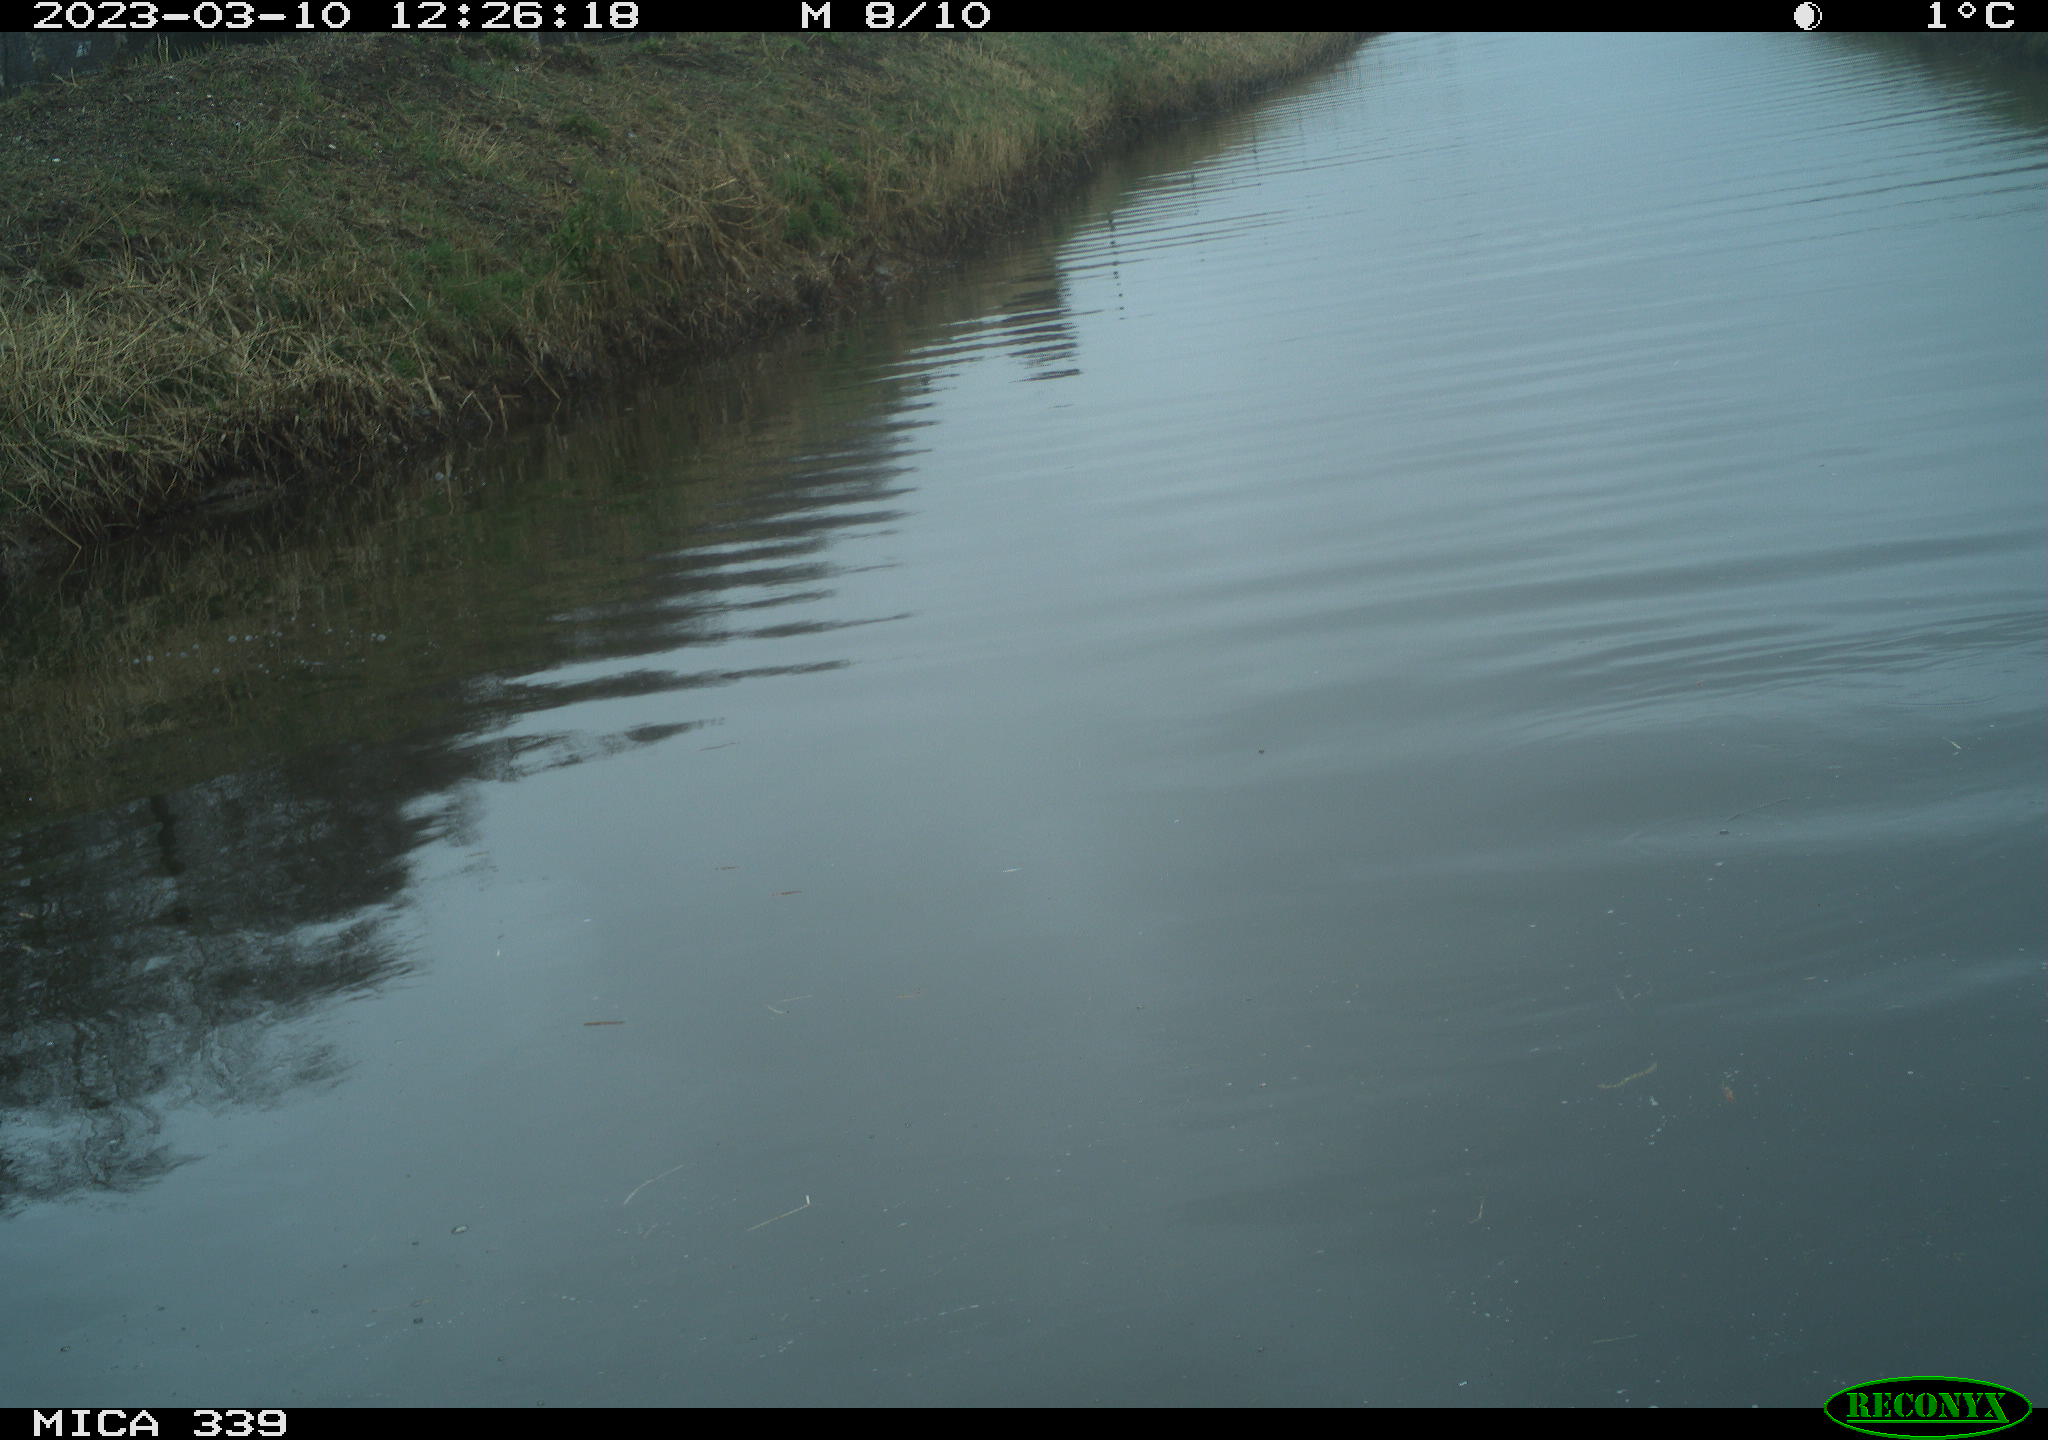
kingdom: Animalia
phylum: Chordata
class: Aves
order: Gruiformes
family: Rallidae
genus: Fulica
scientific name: Fulica atra
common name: Eurasian coot
